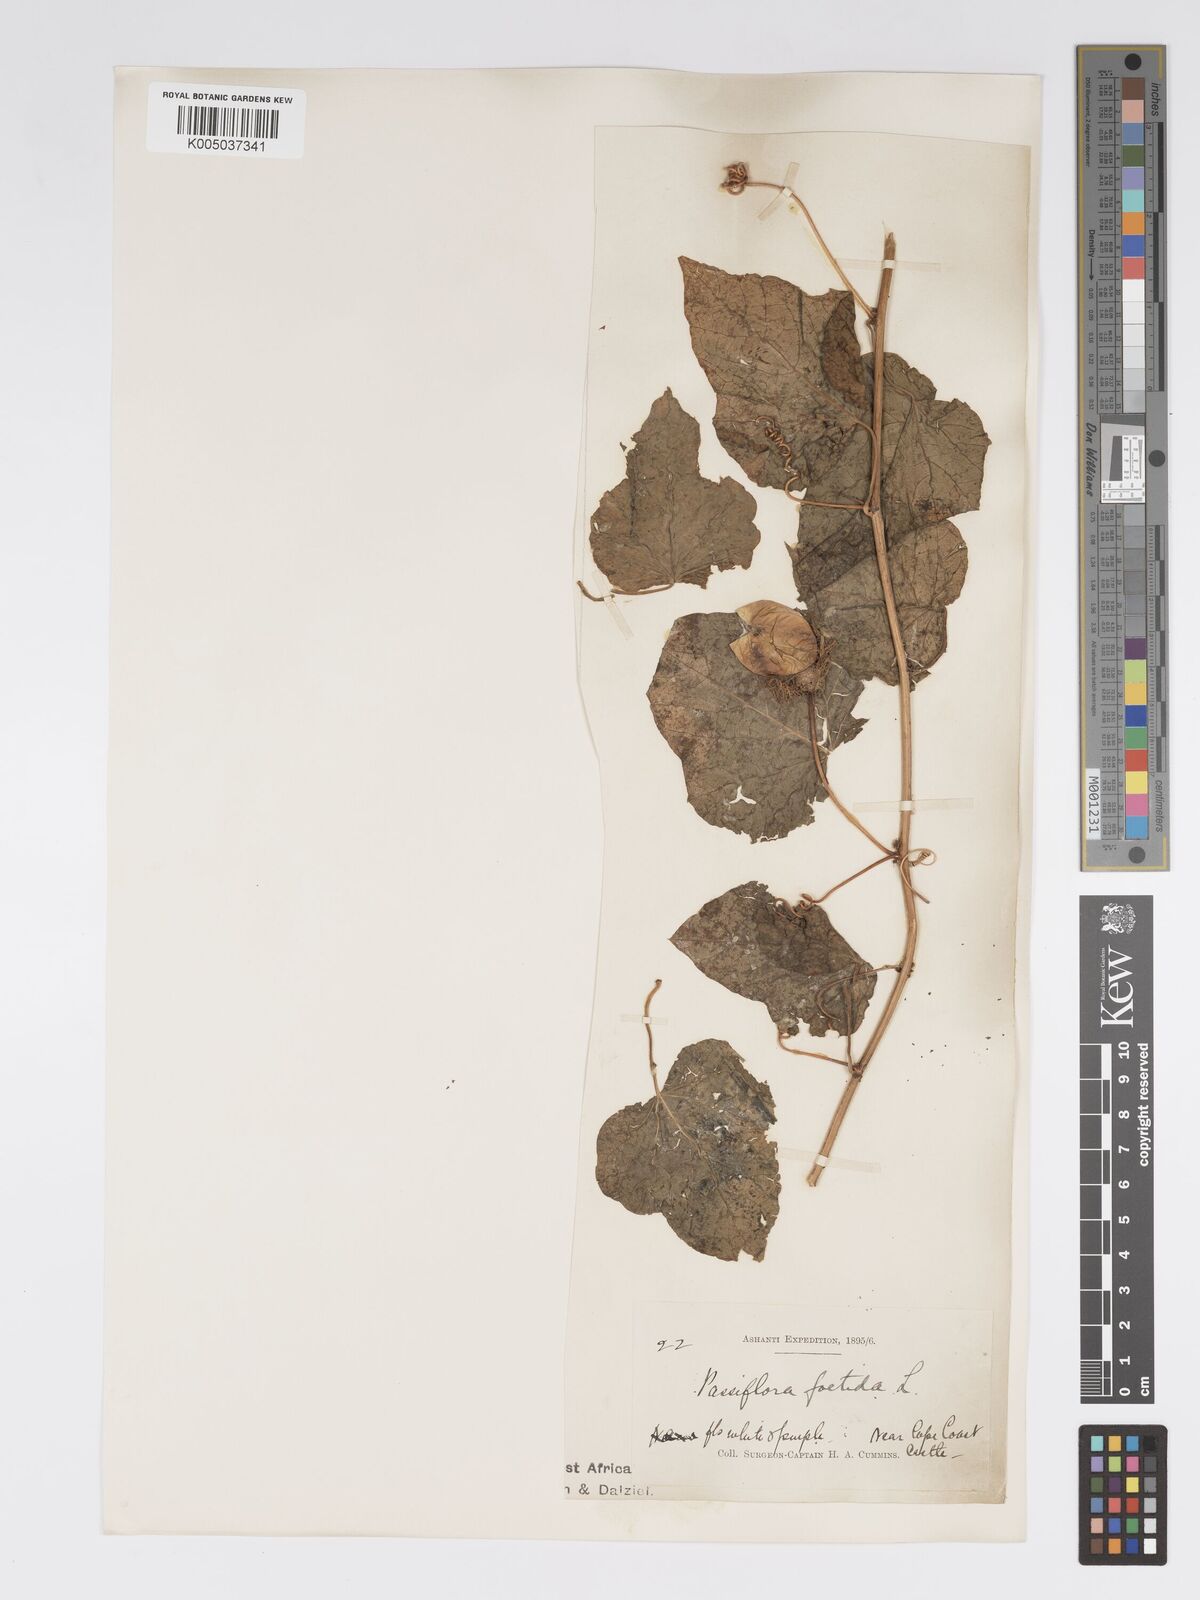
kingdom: Plantae
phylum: Tracheophyta
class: Magnoliopsida
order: Malpighiales
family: Passifloraceae
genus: Passiflora
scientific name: Passiflora foetida
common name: Fetid passionflower
